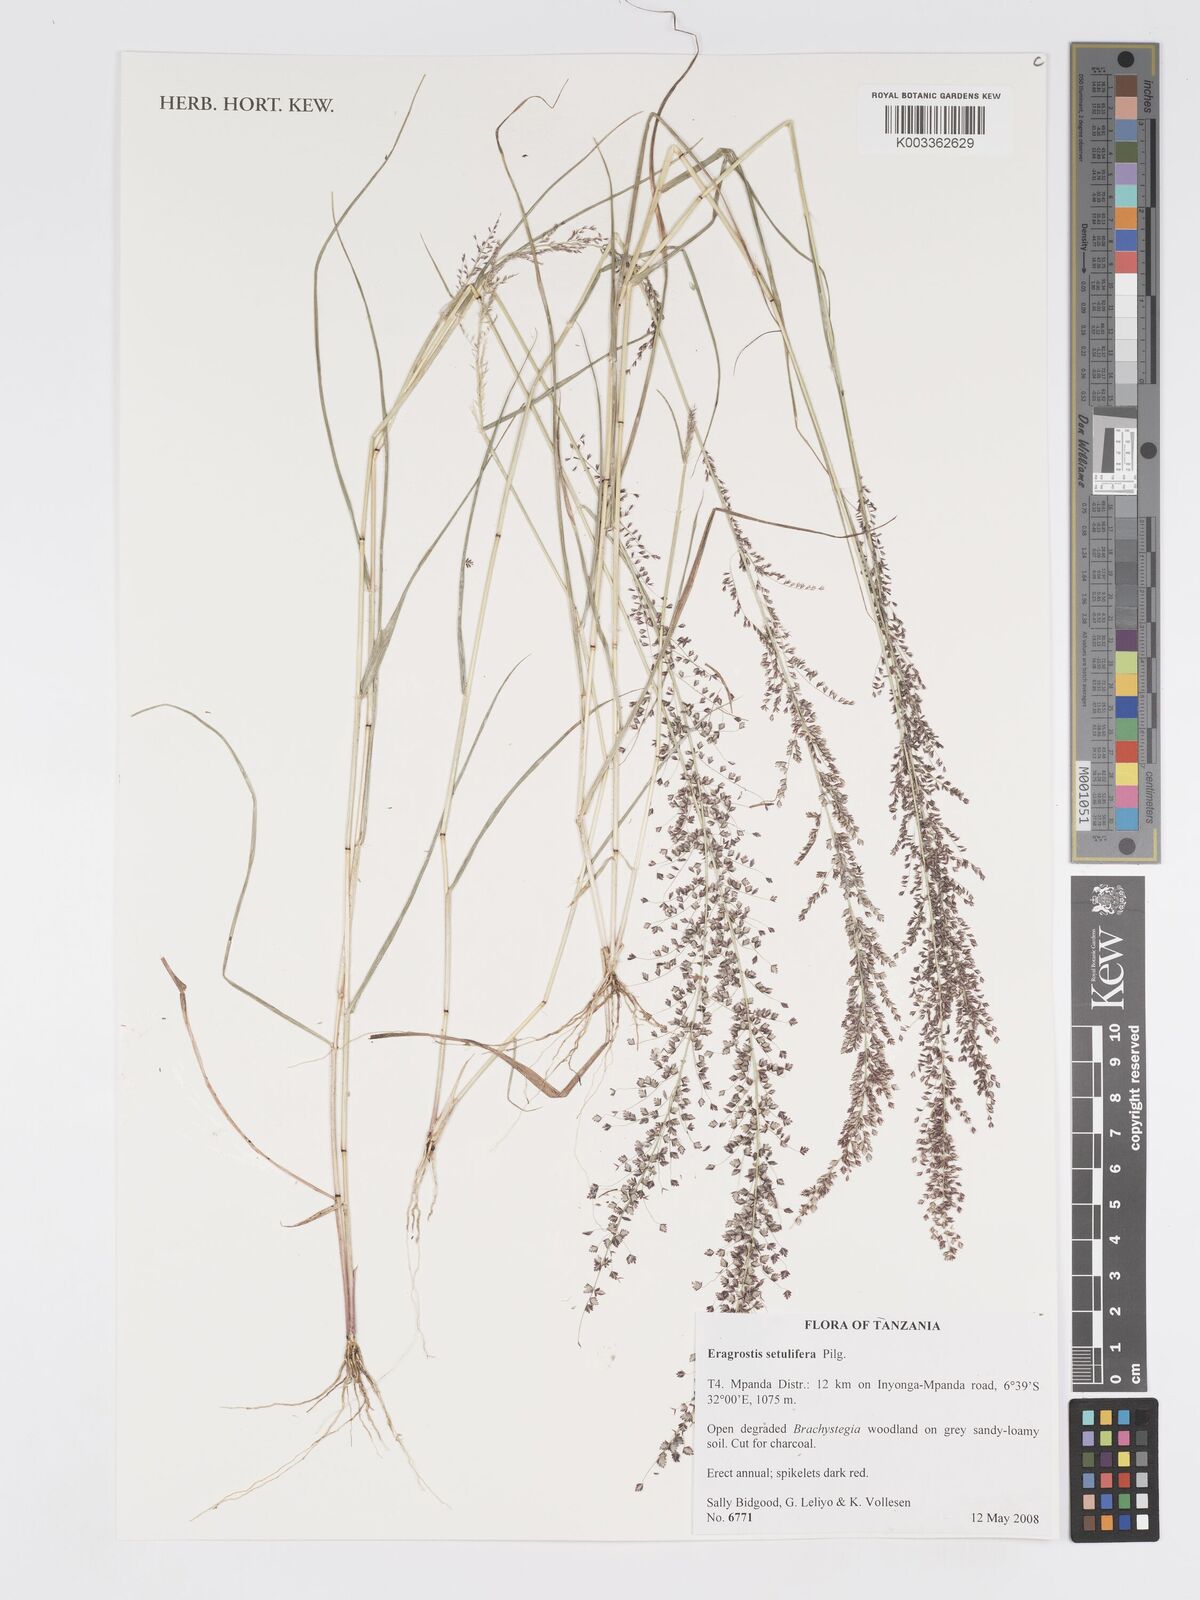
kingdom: Plantae
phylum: Tracheophyta
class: Liliopsida
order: Poales
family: Poaceae
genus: Eragrostis
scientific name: Eragrostis setulifera
